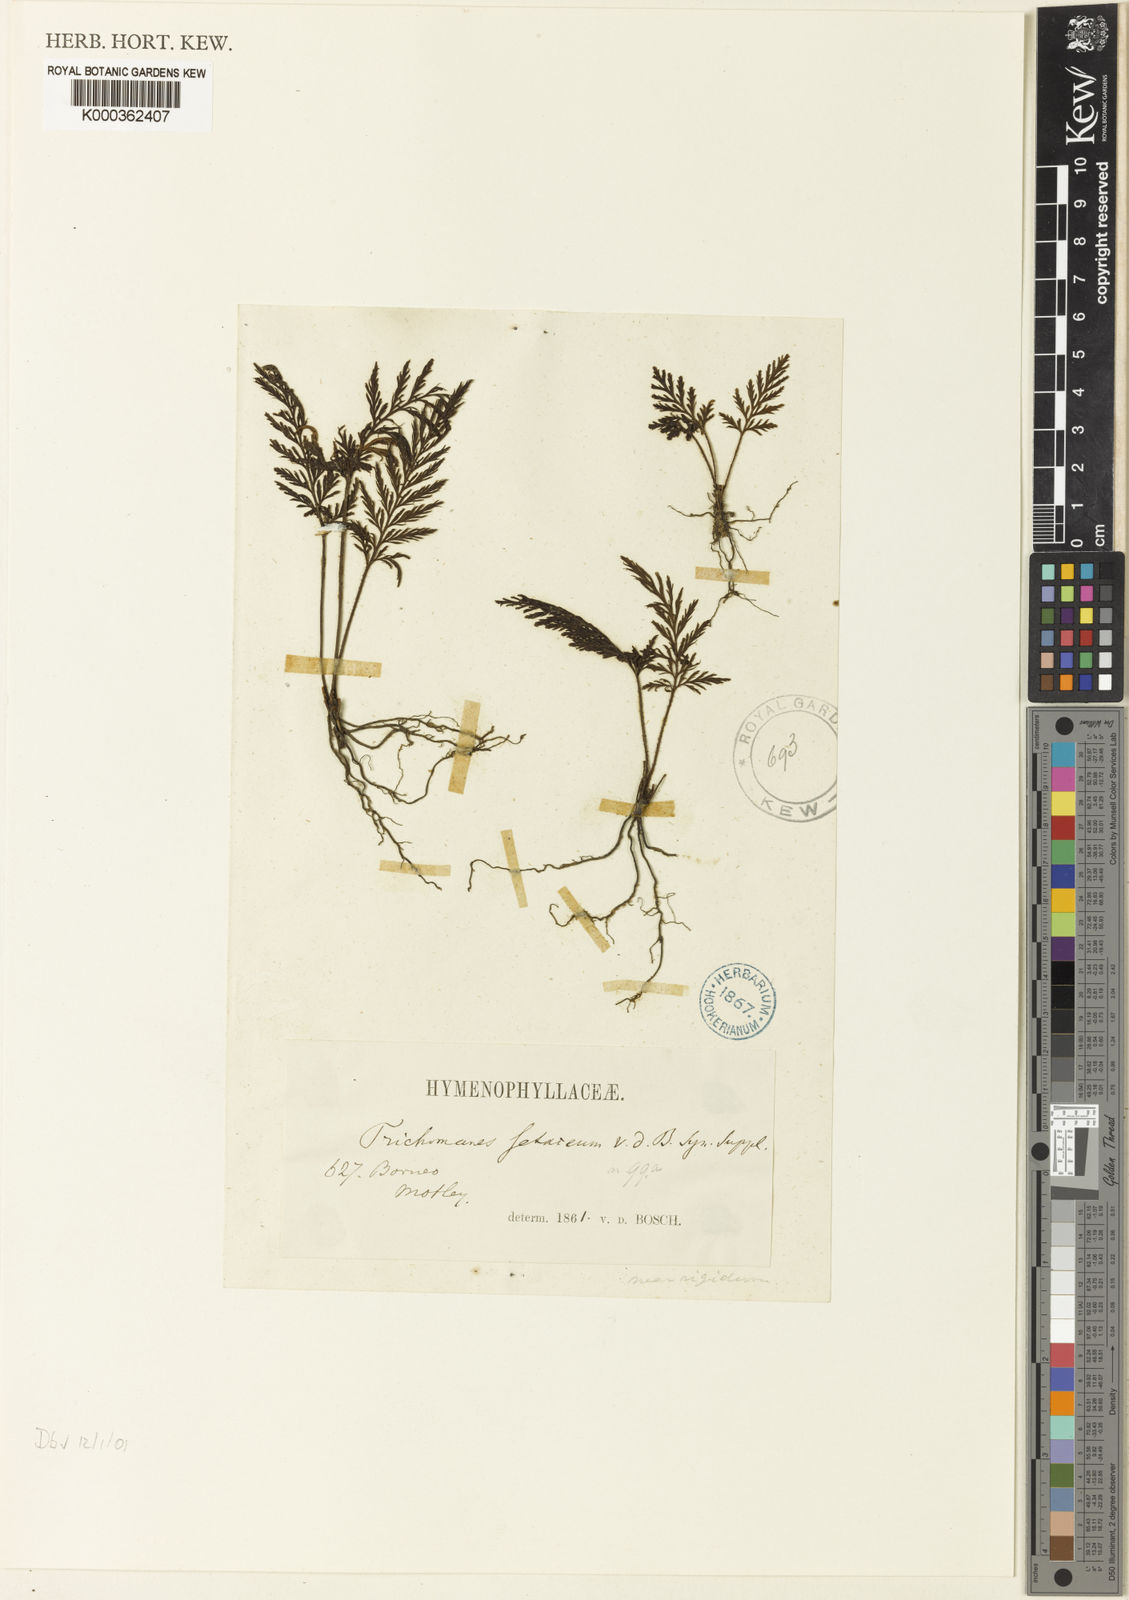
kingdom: Plantae
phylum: Tracheophyta
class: Polypodiopsida
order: Hymenophyllales
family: Hymenophyllaceae
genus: Abrodictyum
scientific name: Abrodictyum setaceum
